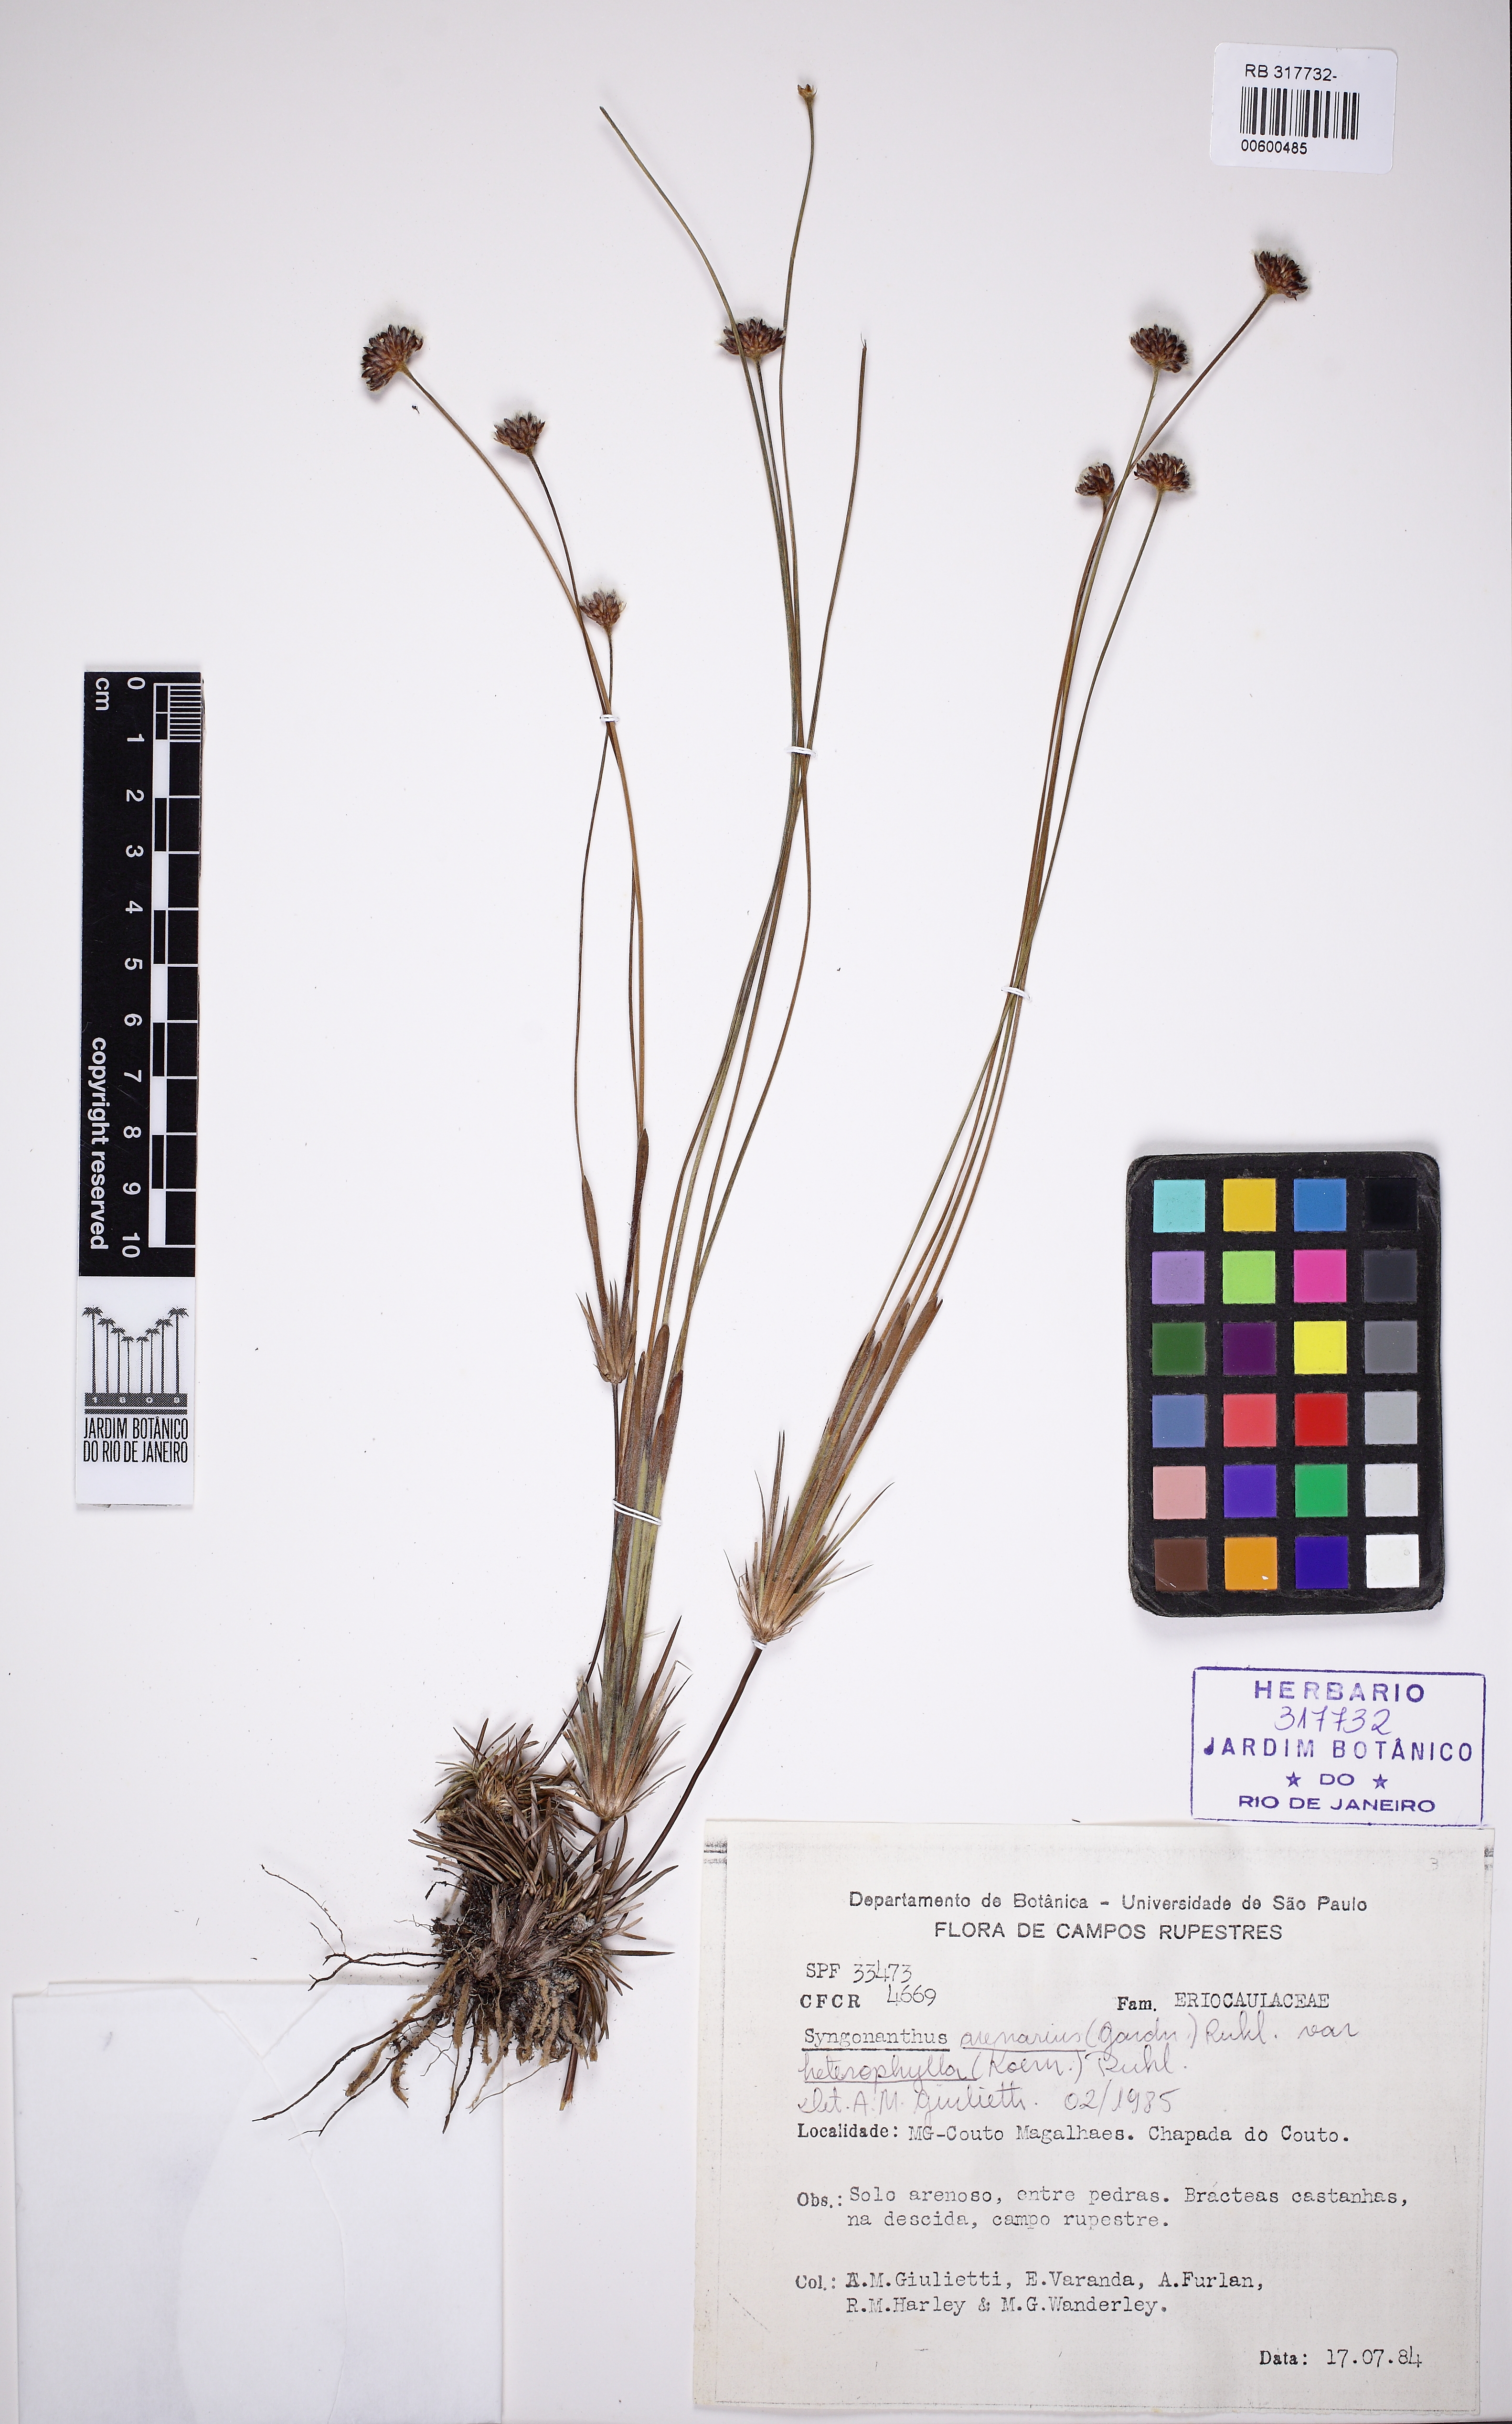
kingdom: Plantae
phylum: Tracheophyta
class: Liliopsida
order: Poales
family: Eriocaulaceae
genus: Syngonanthus
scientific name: Syngonanthus arenarius
